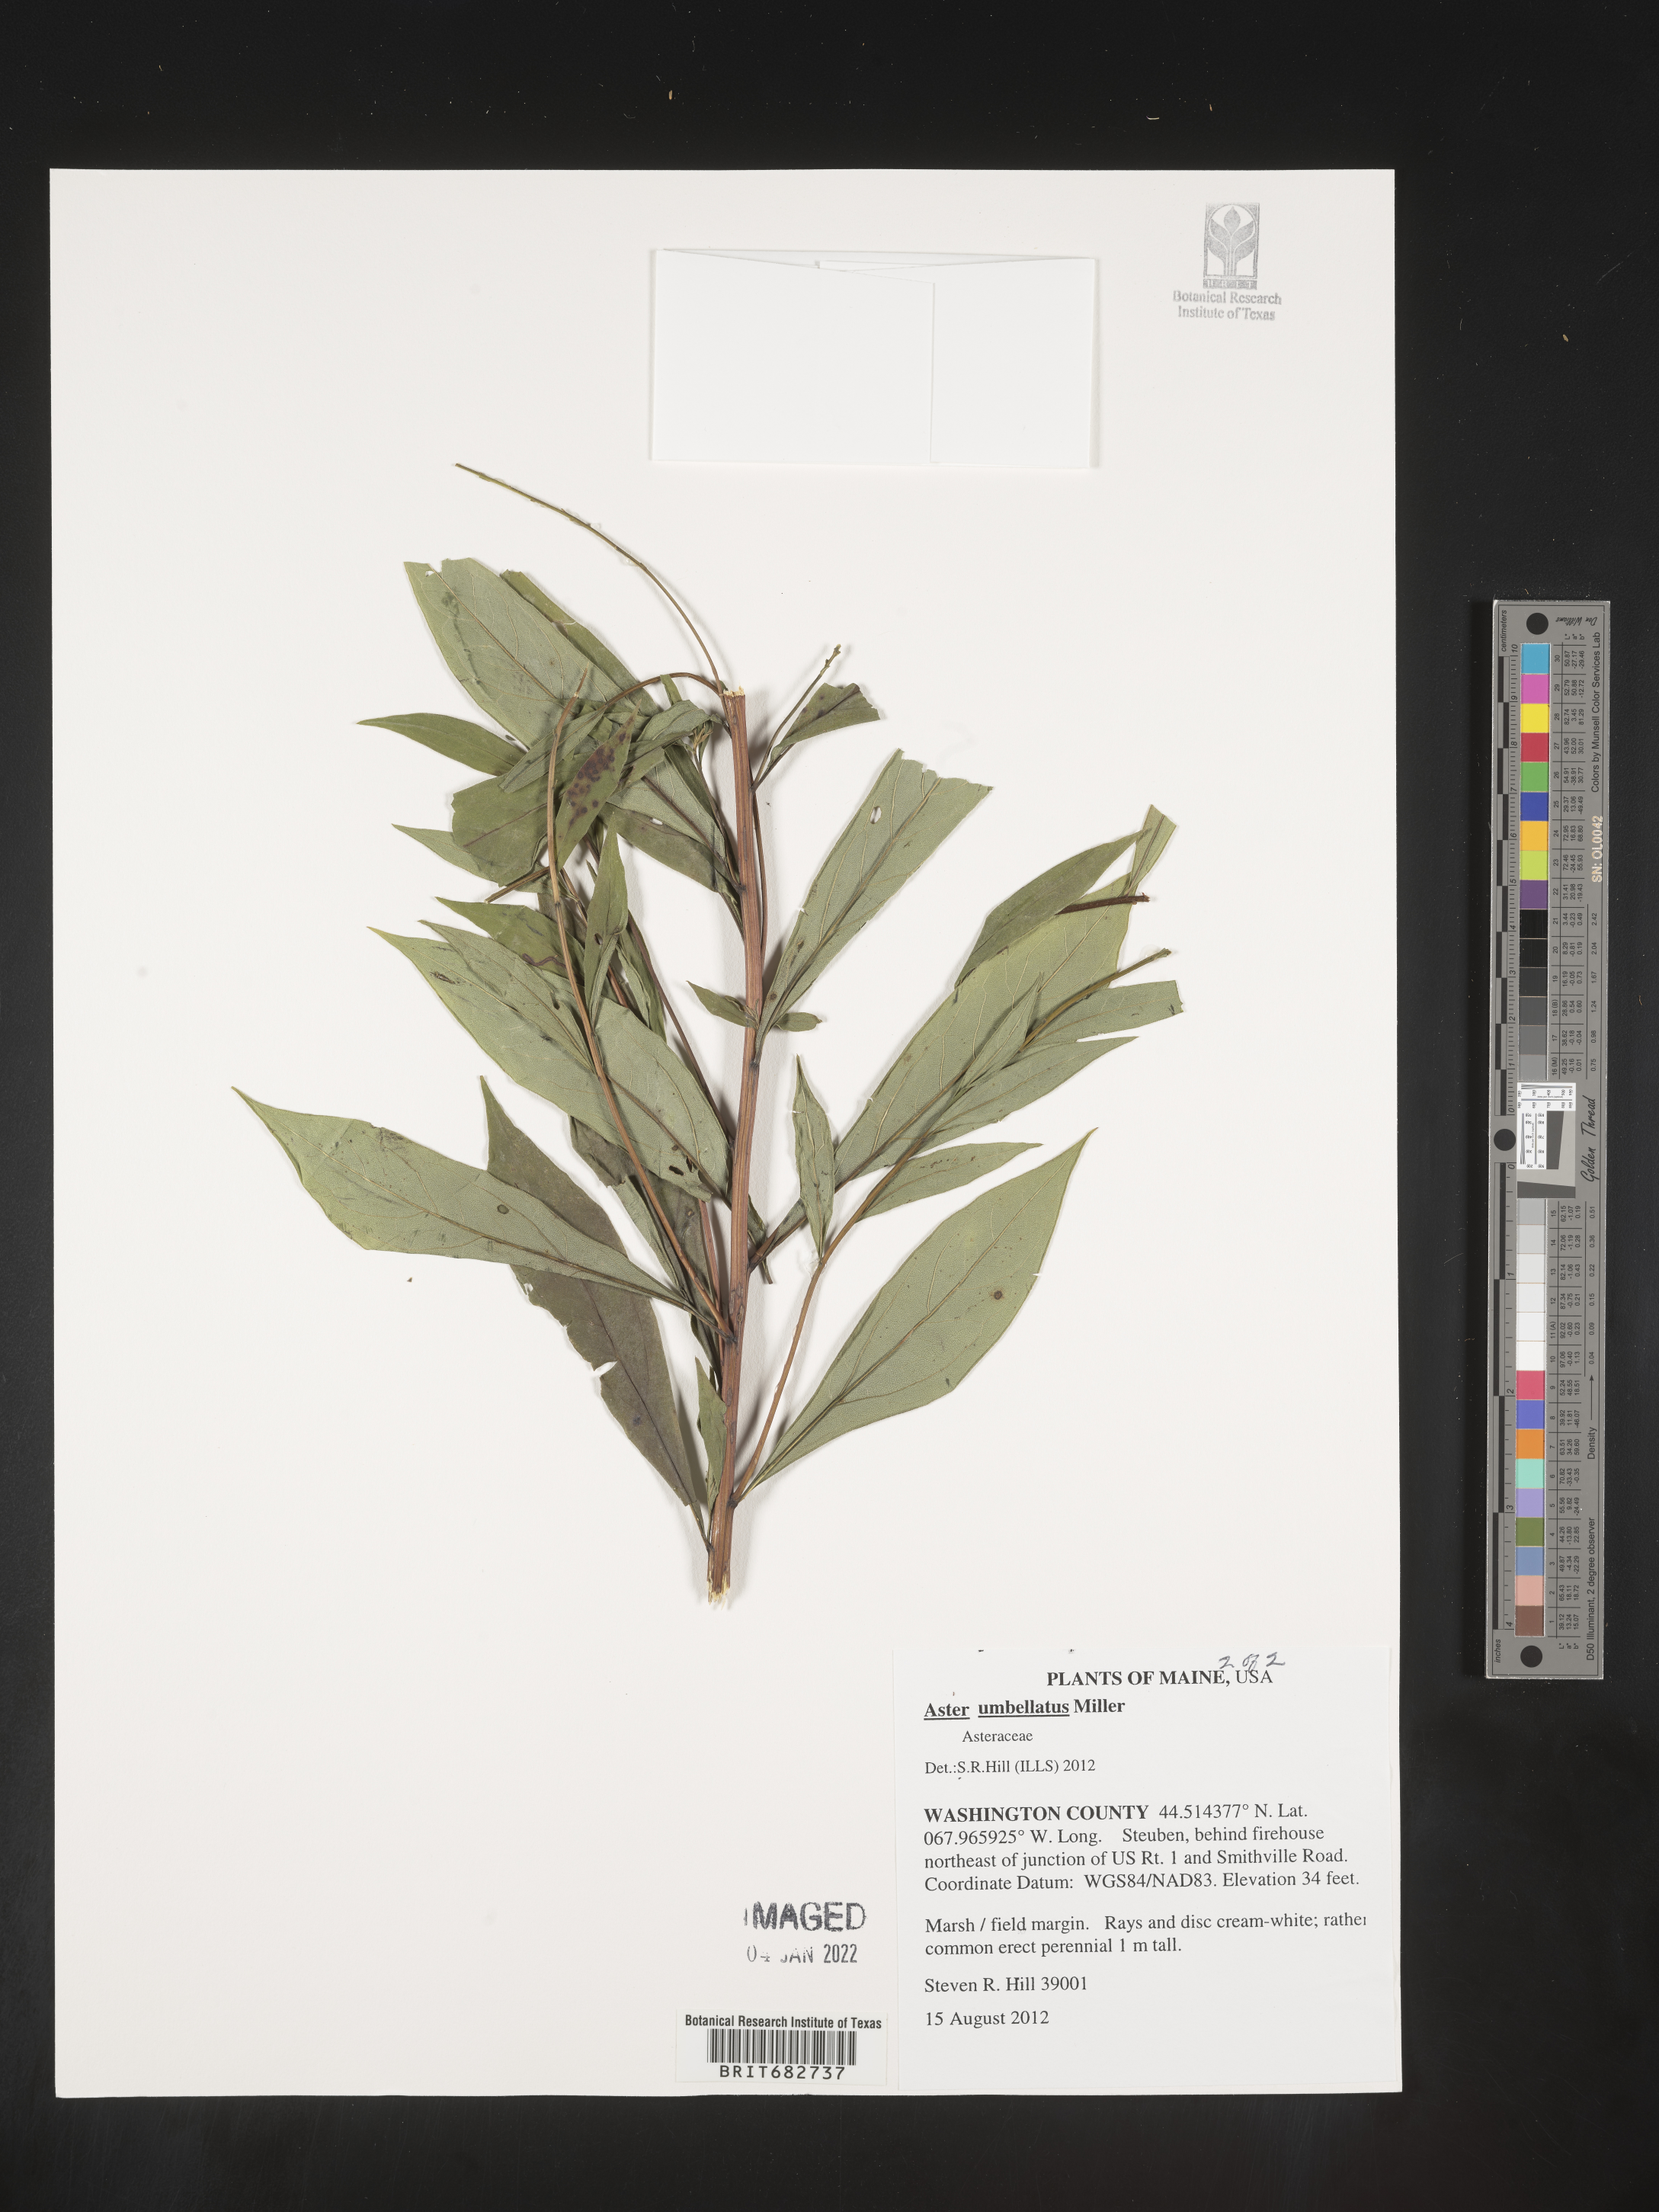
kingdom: Plantae
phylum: Tracheophyta
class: Magnoliopsida
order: Asterales
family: Asteraceae
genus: Aster
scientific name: Aster
